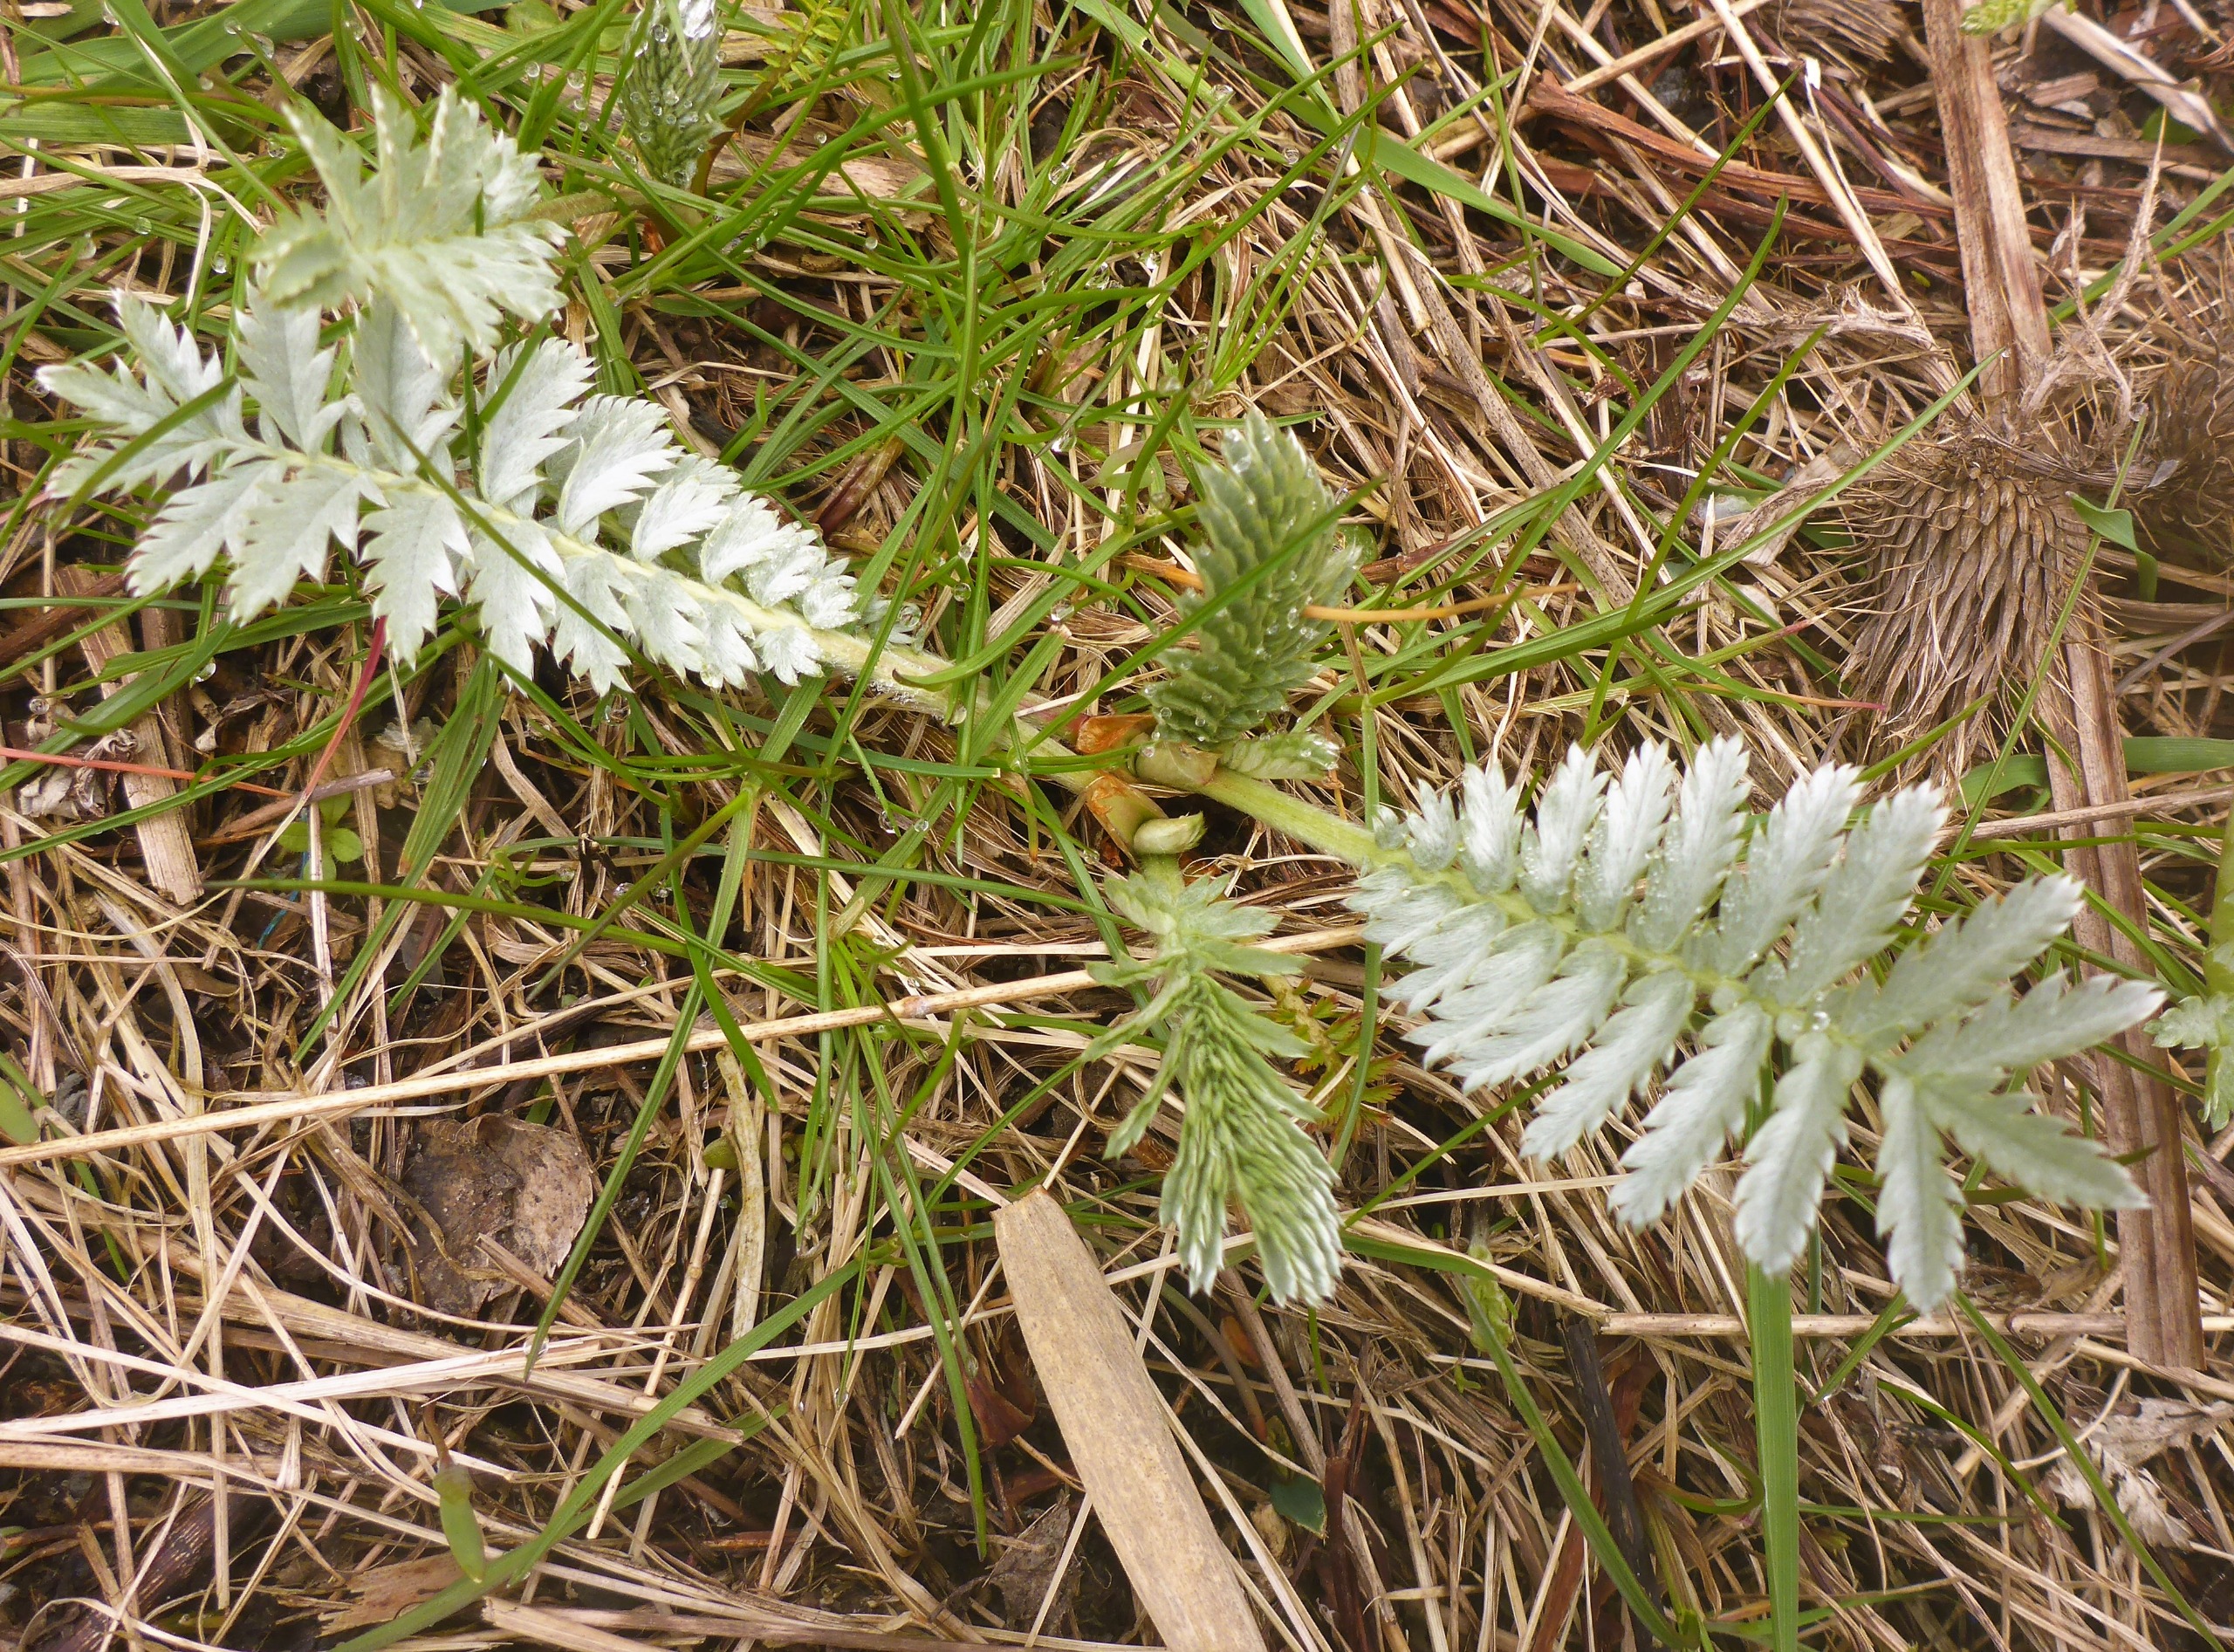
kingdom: Plantae
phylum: Tracheophyta
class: Magnoliopsida
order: Rosales
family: Rosaceae
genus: Argentina
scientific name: Argentina anserina
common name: Gåsepotentil
